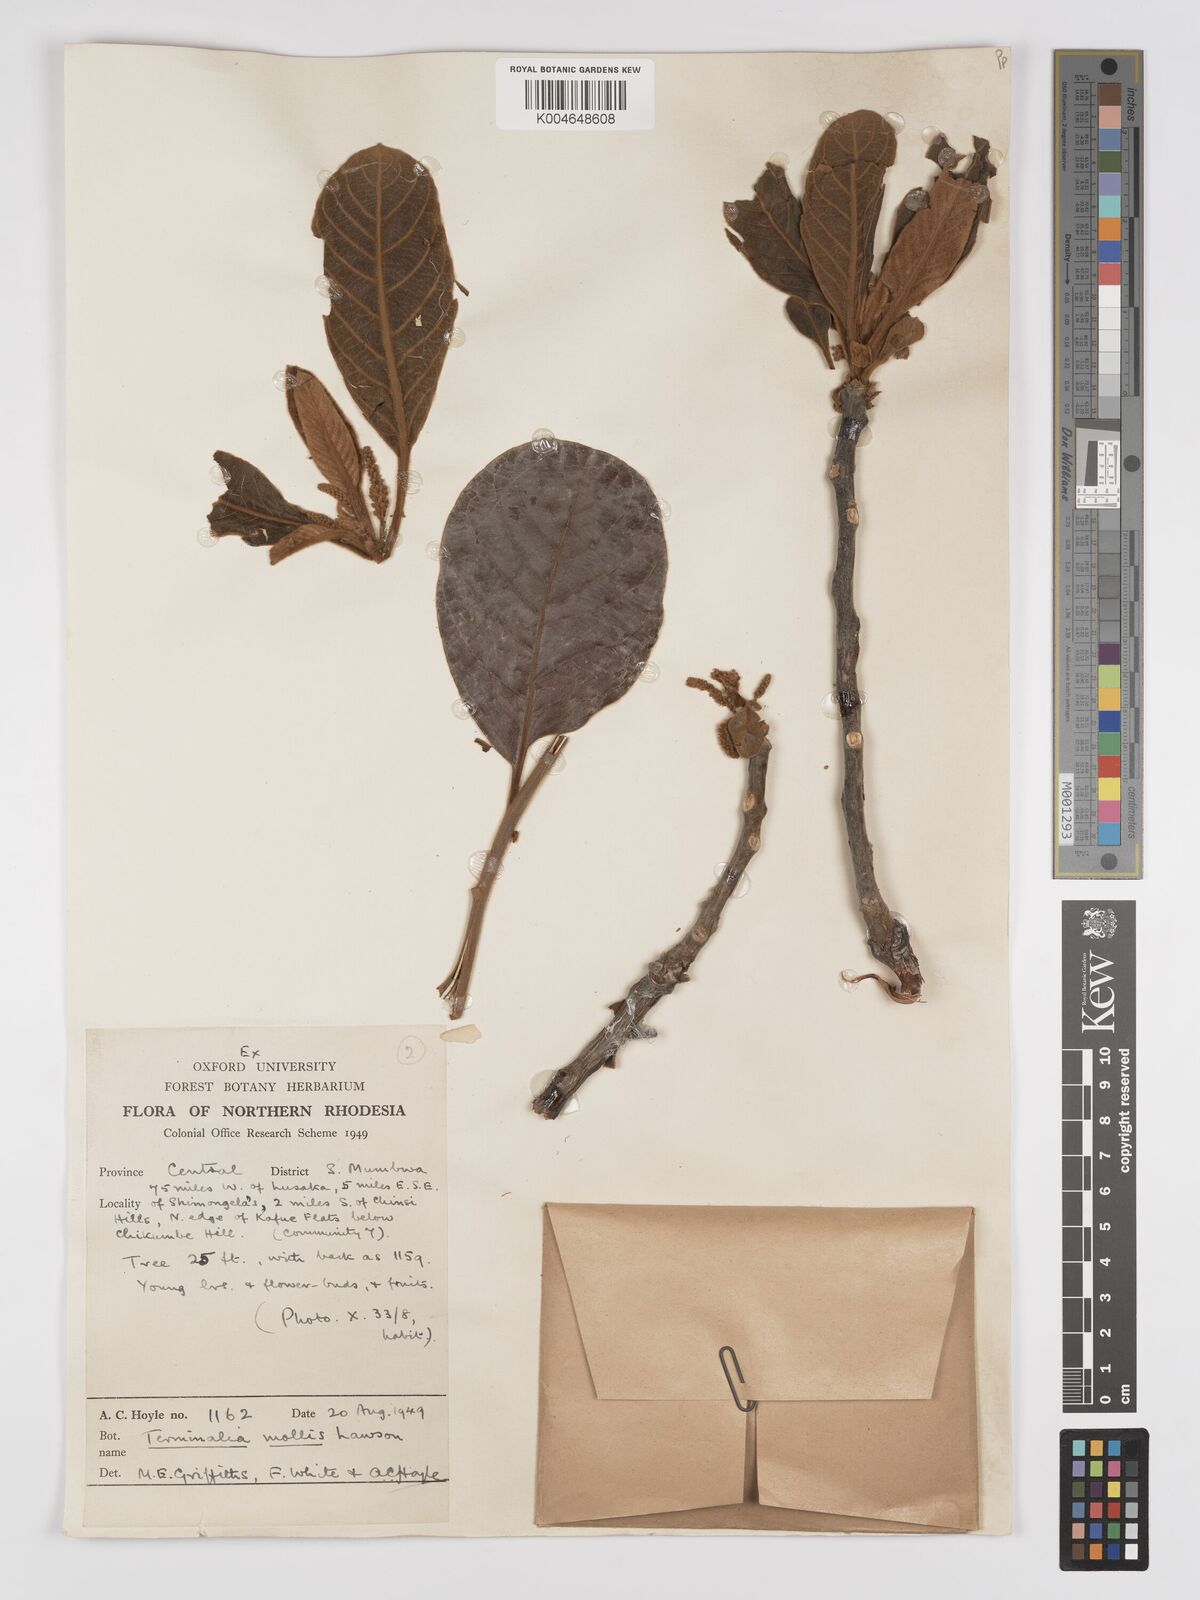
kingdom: Plantae
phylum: Tracheophyta
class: Magnoliopsida
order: Myrtales
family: Combretaceae
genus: Terminalia
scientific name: Terminalia
